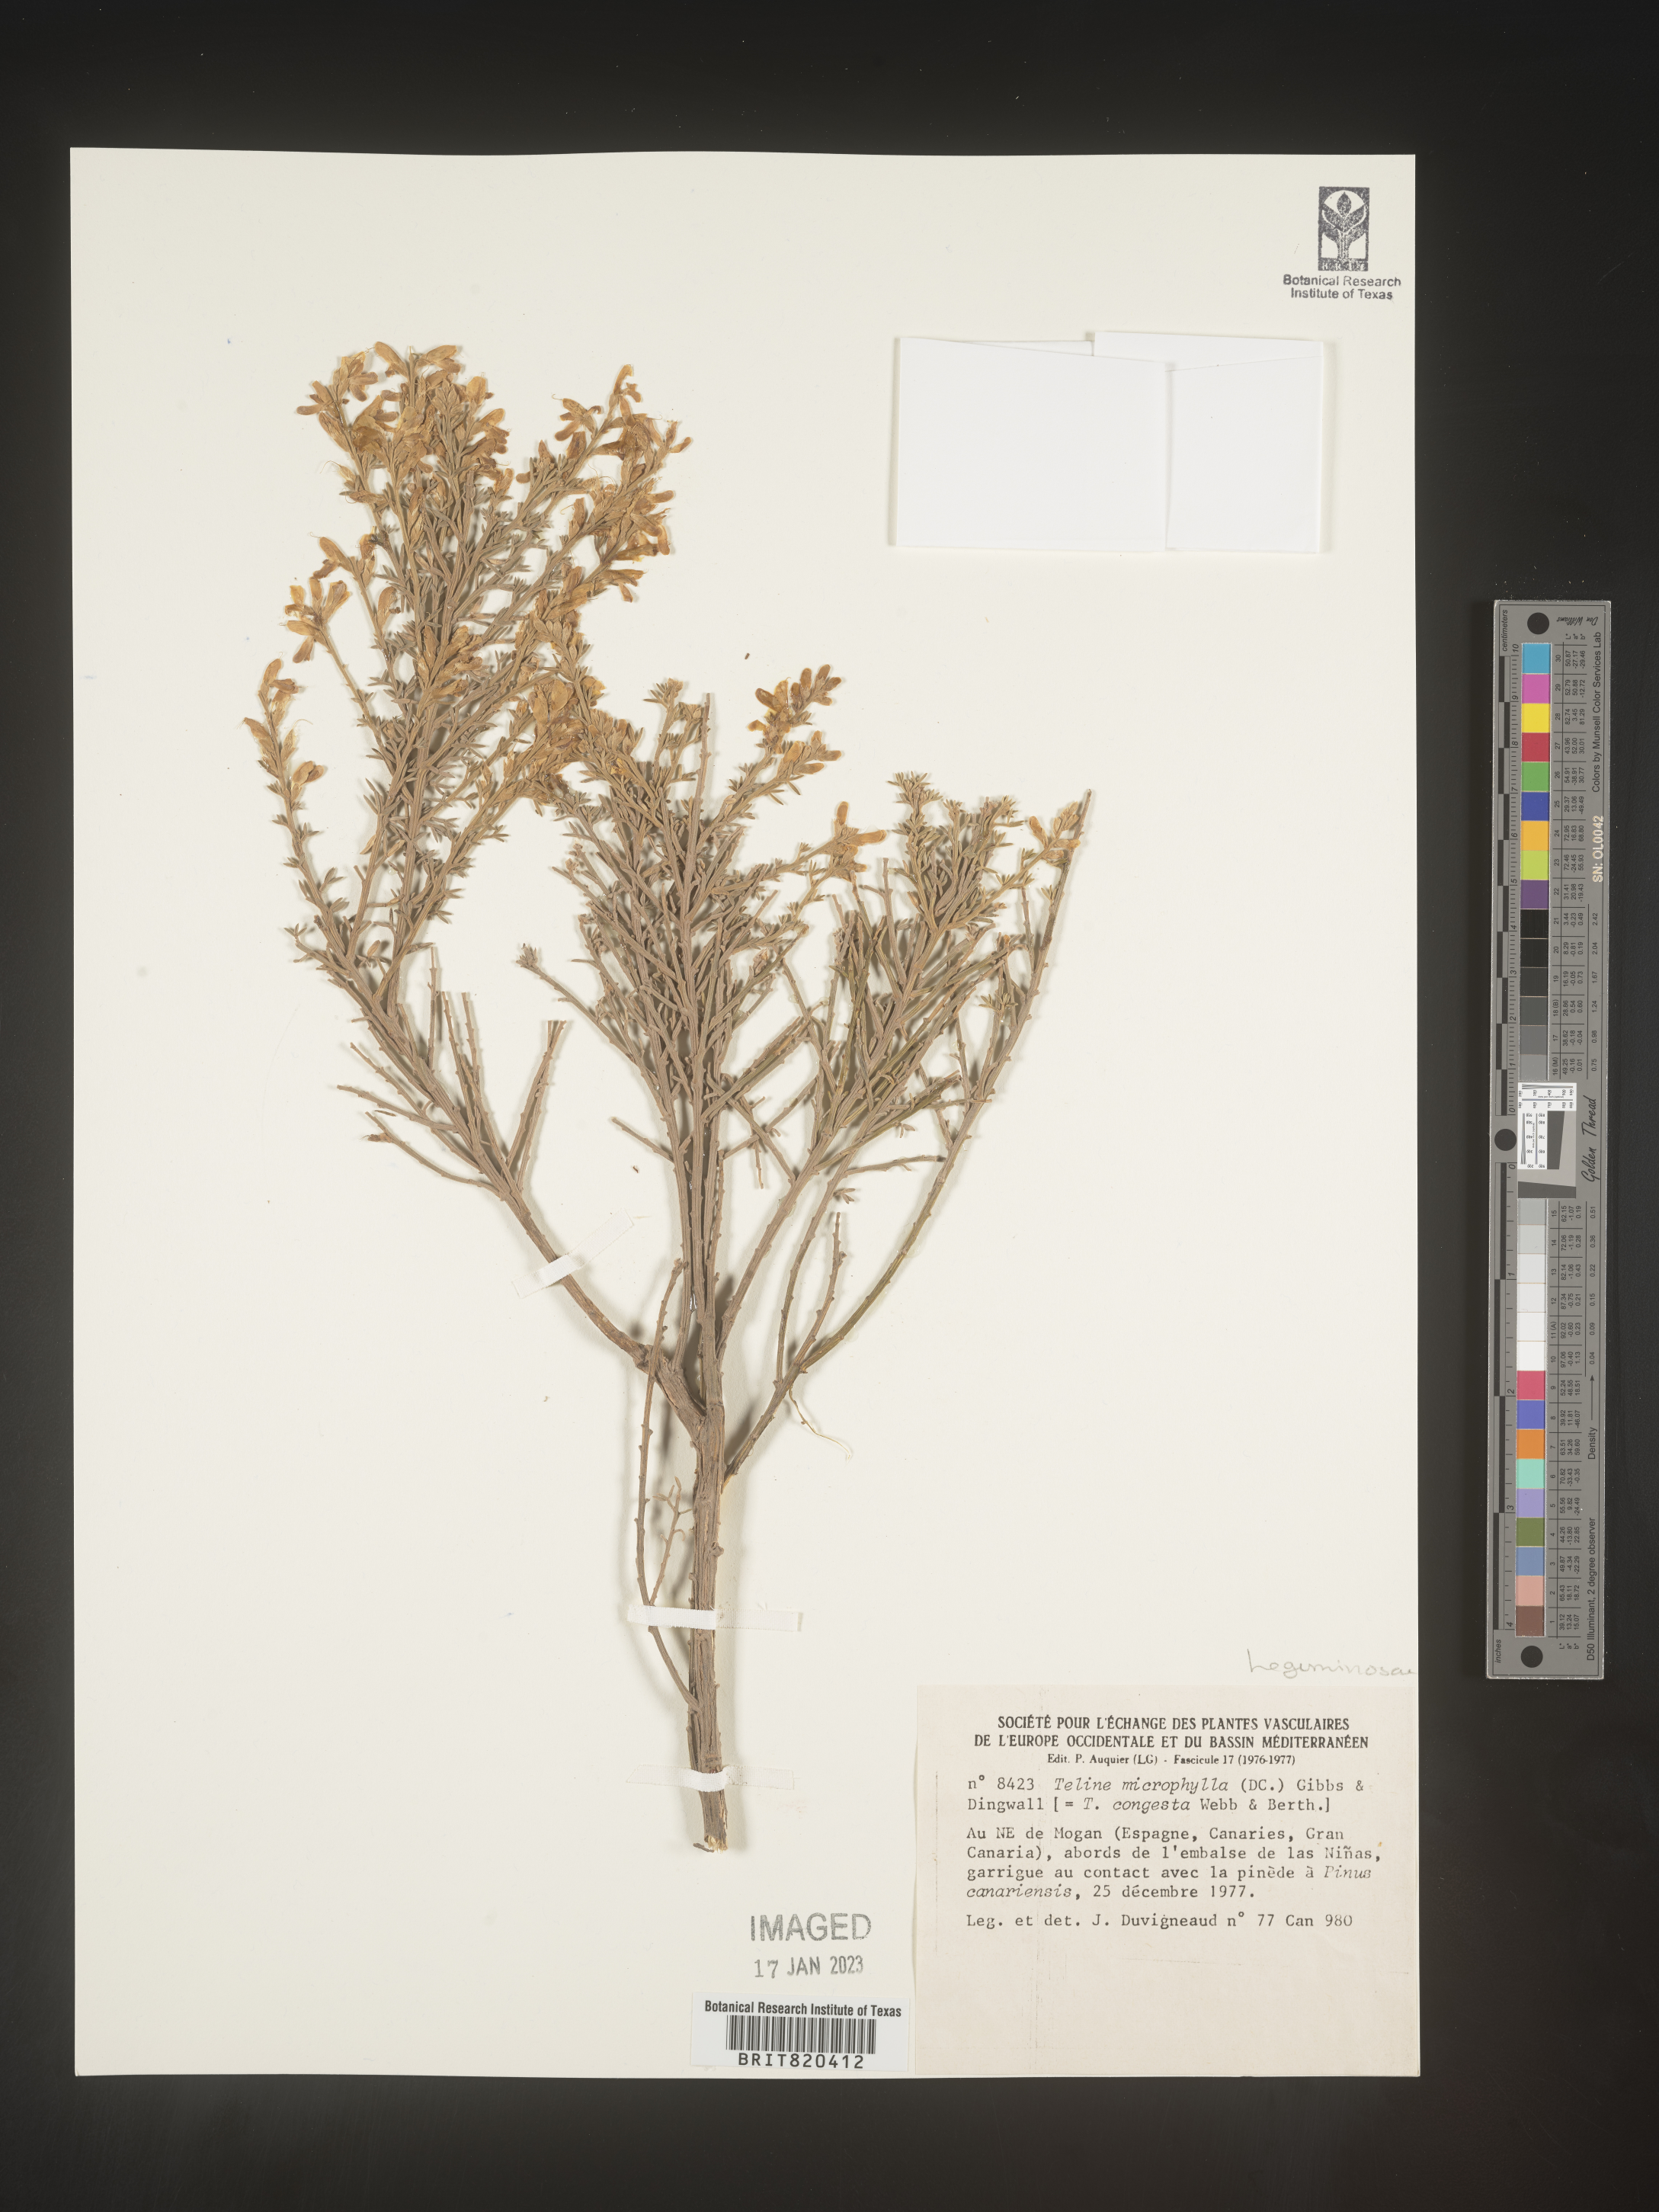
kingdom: Plantae
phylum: Tracheophyta
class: Magnoliopsida
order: Fabales
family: Fabaceae
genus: Genista
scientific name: Genista
